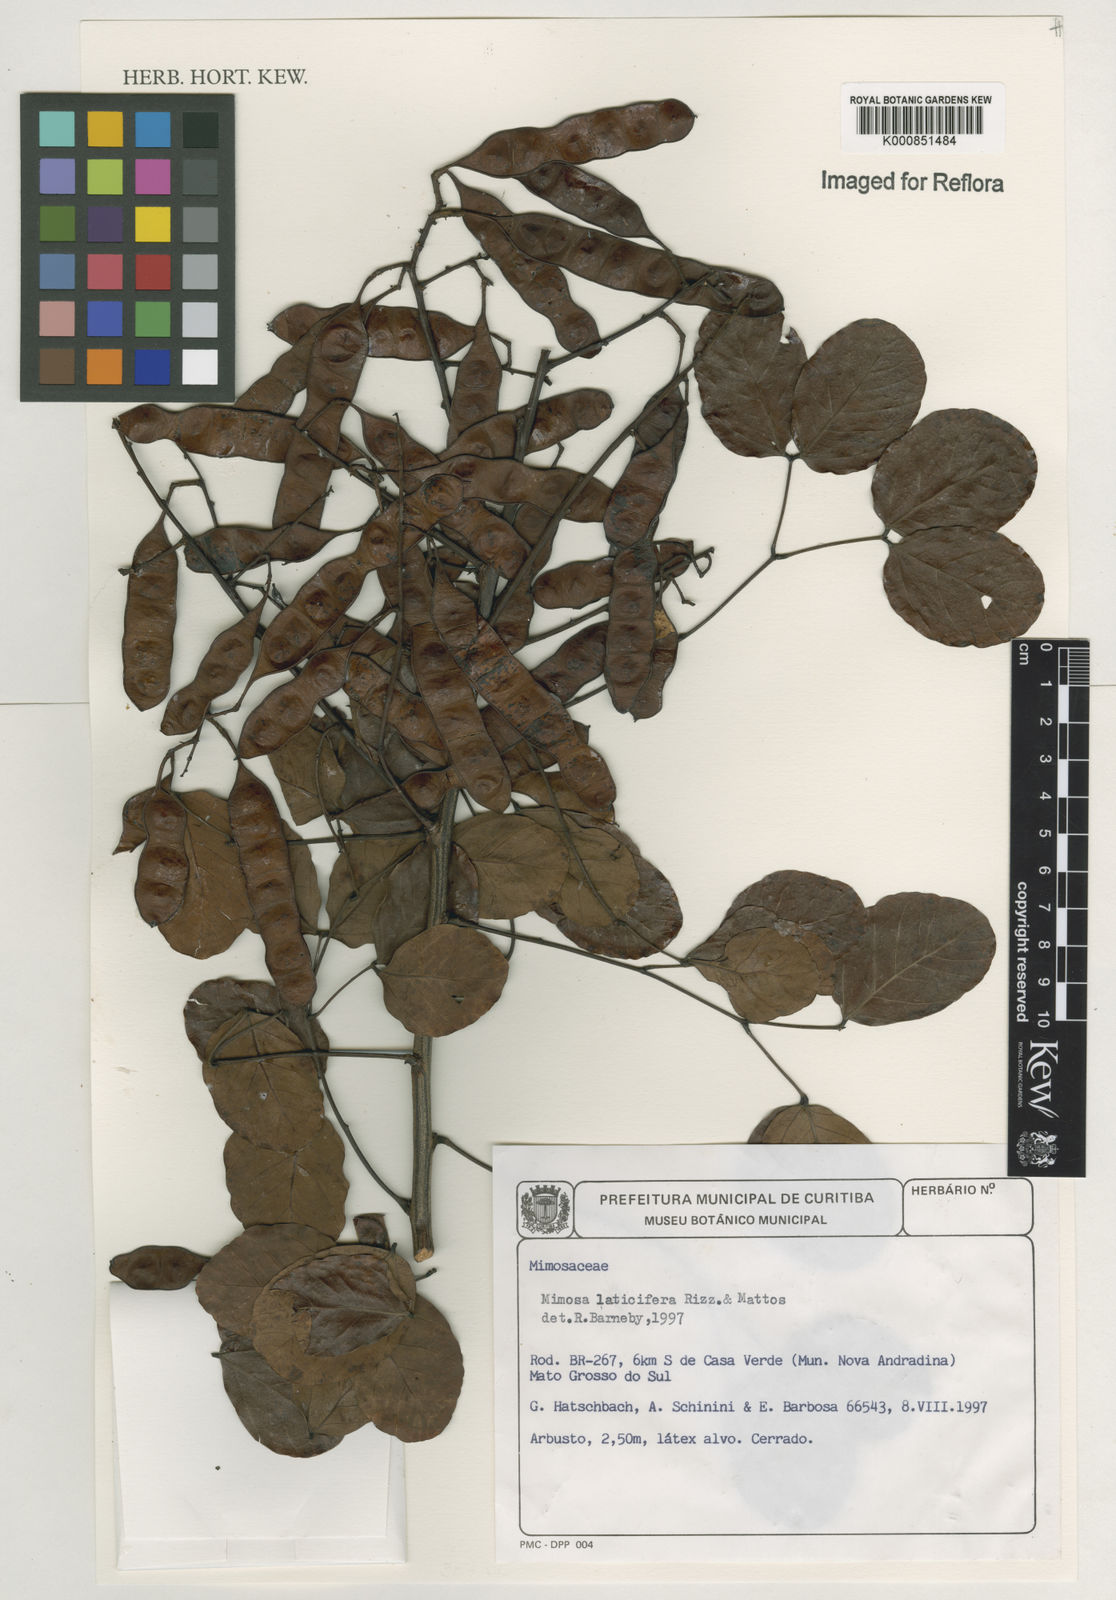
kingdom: Plantae
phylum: Tracheophyta
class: Magnoliopsida
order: Fabales
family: Fabaceae
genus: Mimosa
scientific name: Mimosa laticifera
